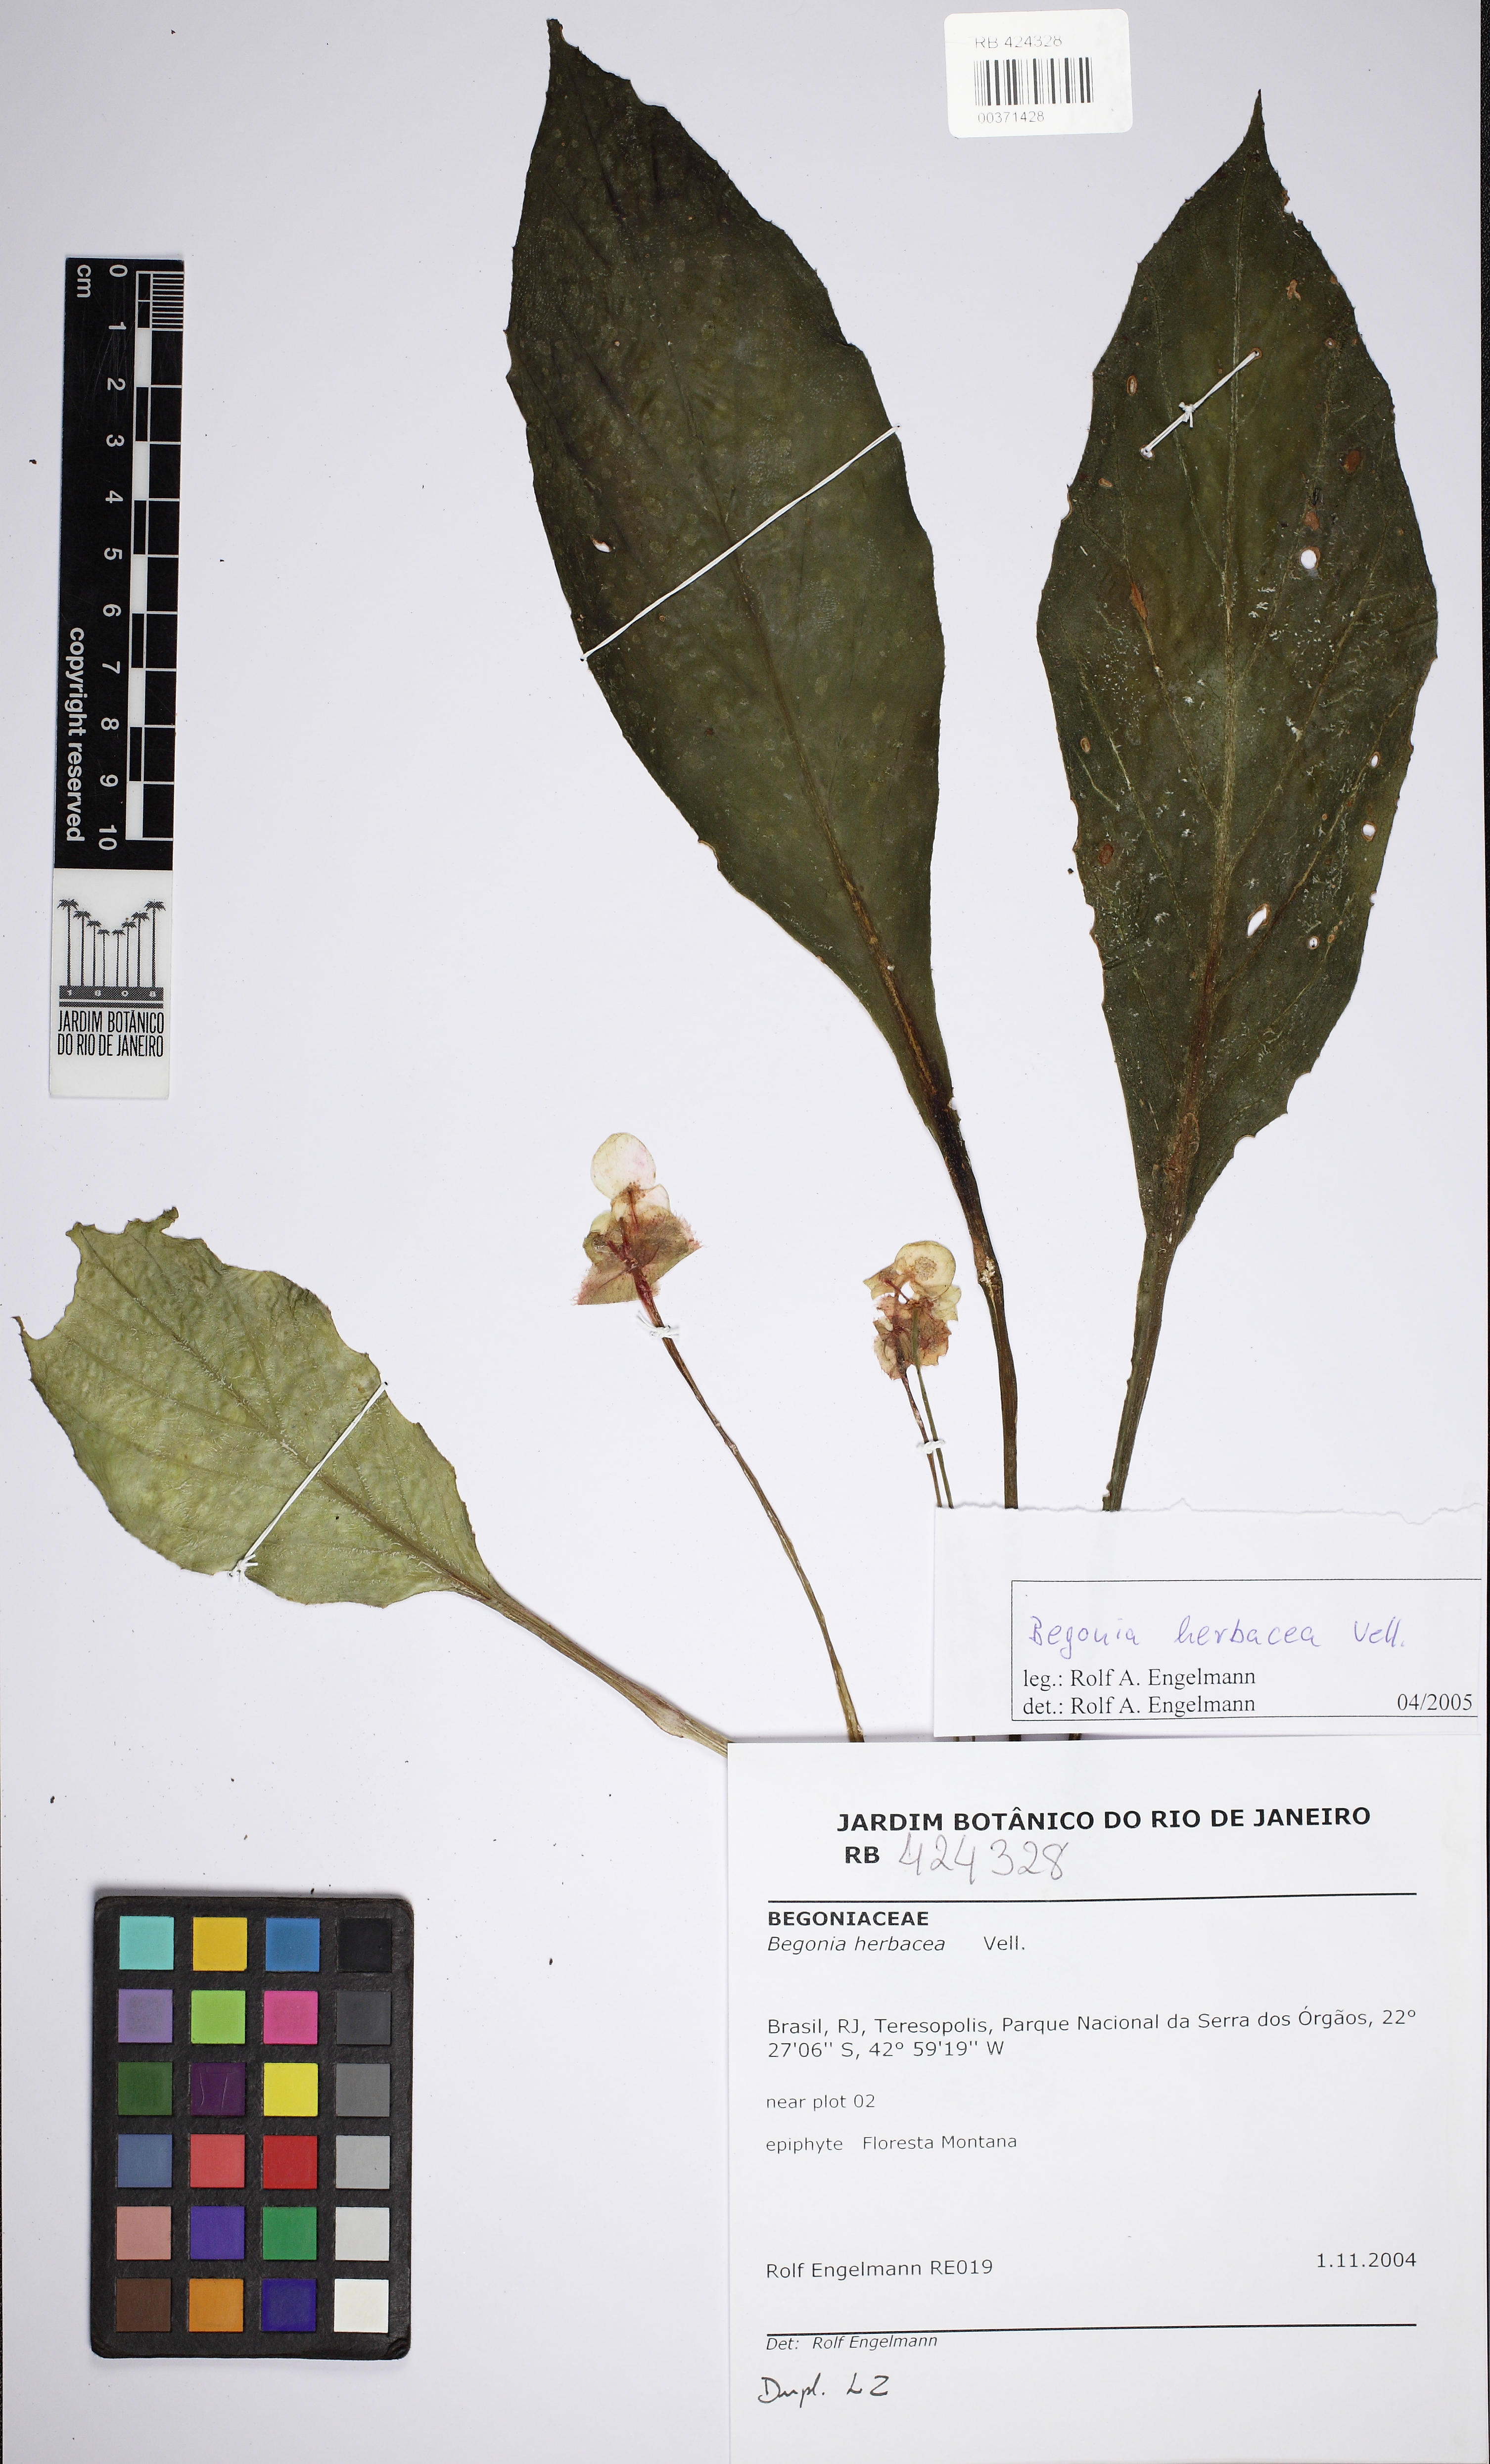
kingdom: Plantae
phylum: Tracheophyta
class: Magnoliopsida
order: Cucurbitales
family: Begoniaceae
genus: Begonia
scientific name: Begonia herbacea
